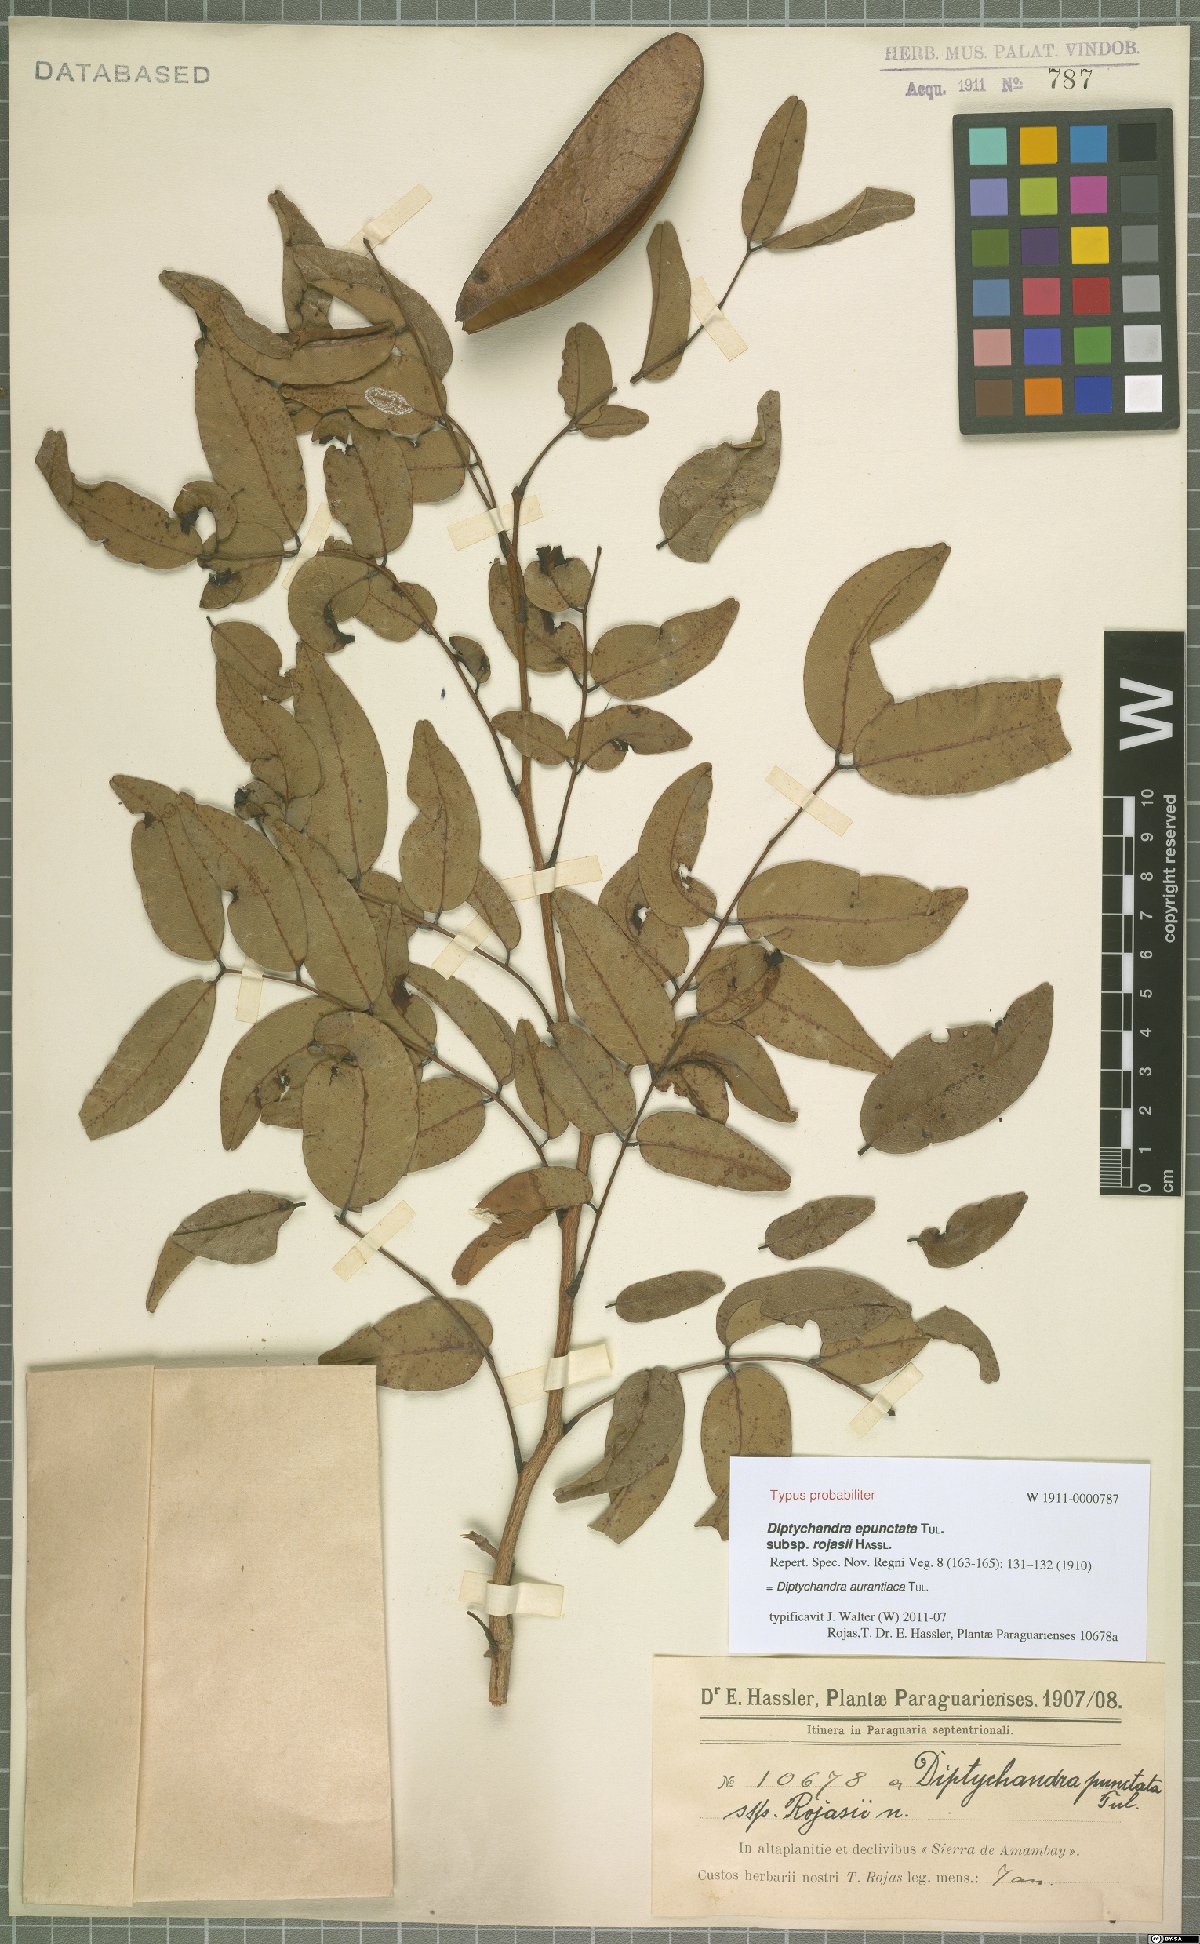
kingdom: Plantae
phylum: Tracheophyta
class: Magnoliopsida
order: Fabales
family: Fabaceae
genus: Diptychandra
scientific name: Diptychandra aurantiaca
